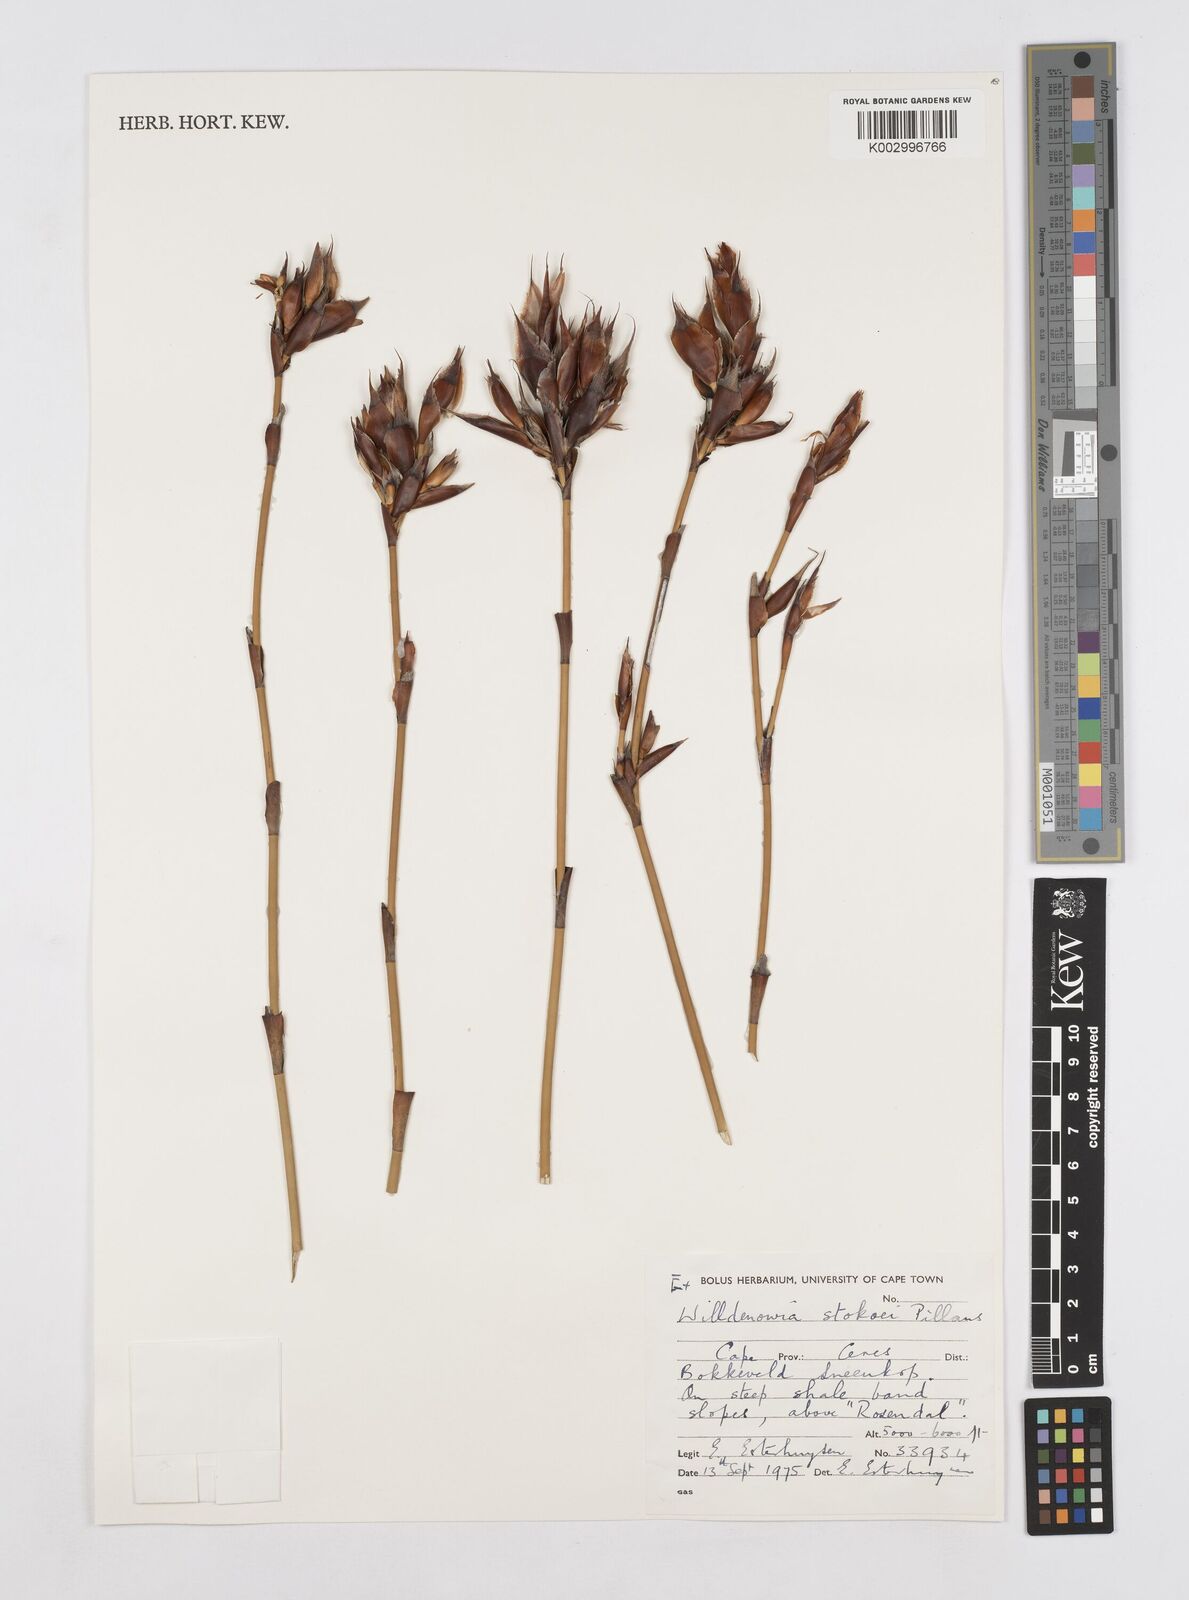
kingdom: Plantae
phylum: Tracheophyta
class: Liliopsida
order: Poales
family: Restionaceae
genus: Willdenowia
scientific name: Willdenowia stokoei
